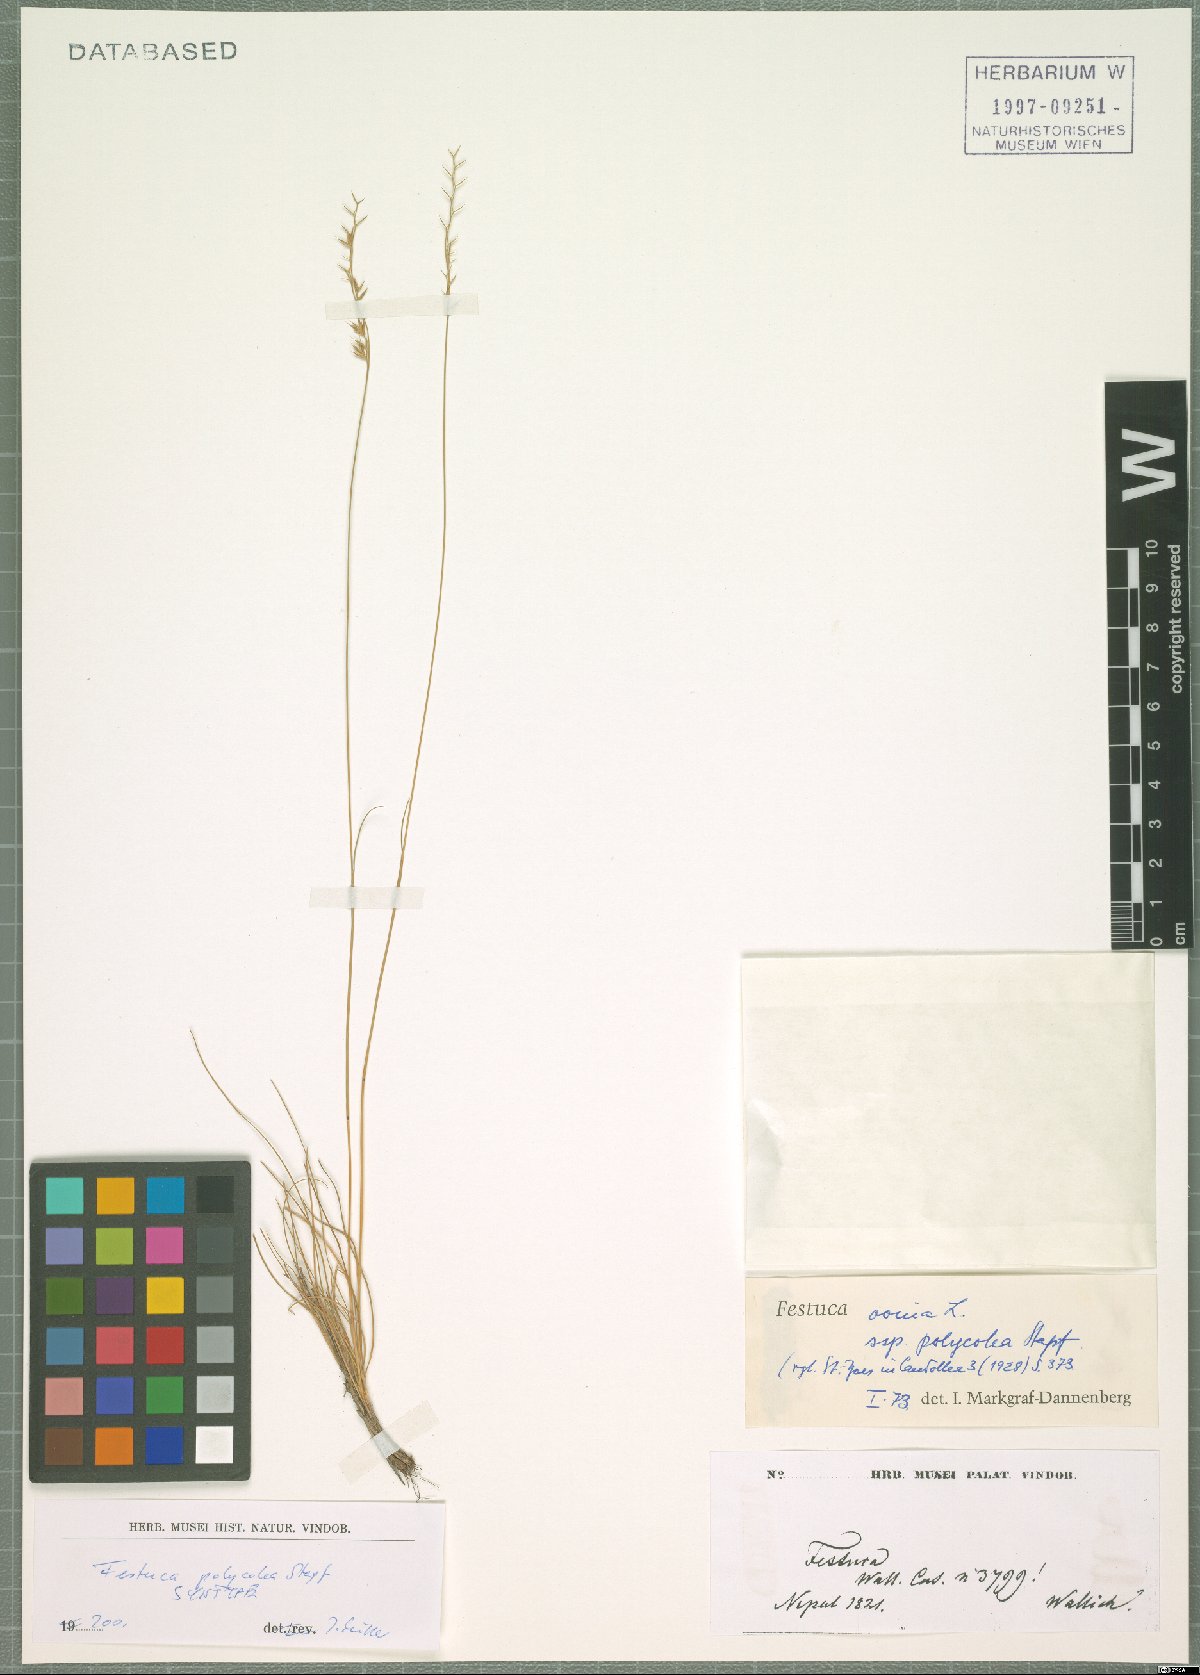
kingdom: Plantae
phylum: Tracheophyta
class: Liliopsida
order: Poales
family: Poaceae
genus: Festuca
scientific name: Festuca polycolea
